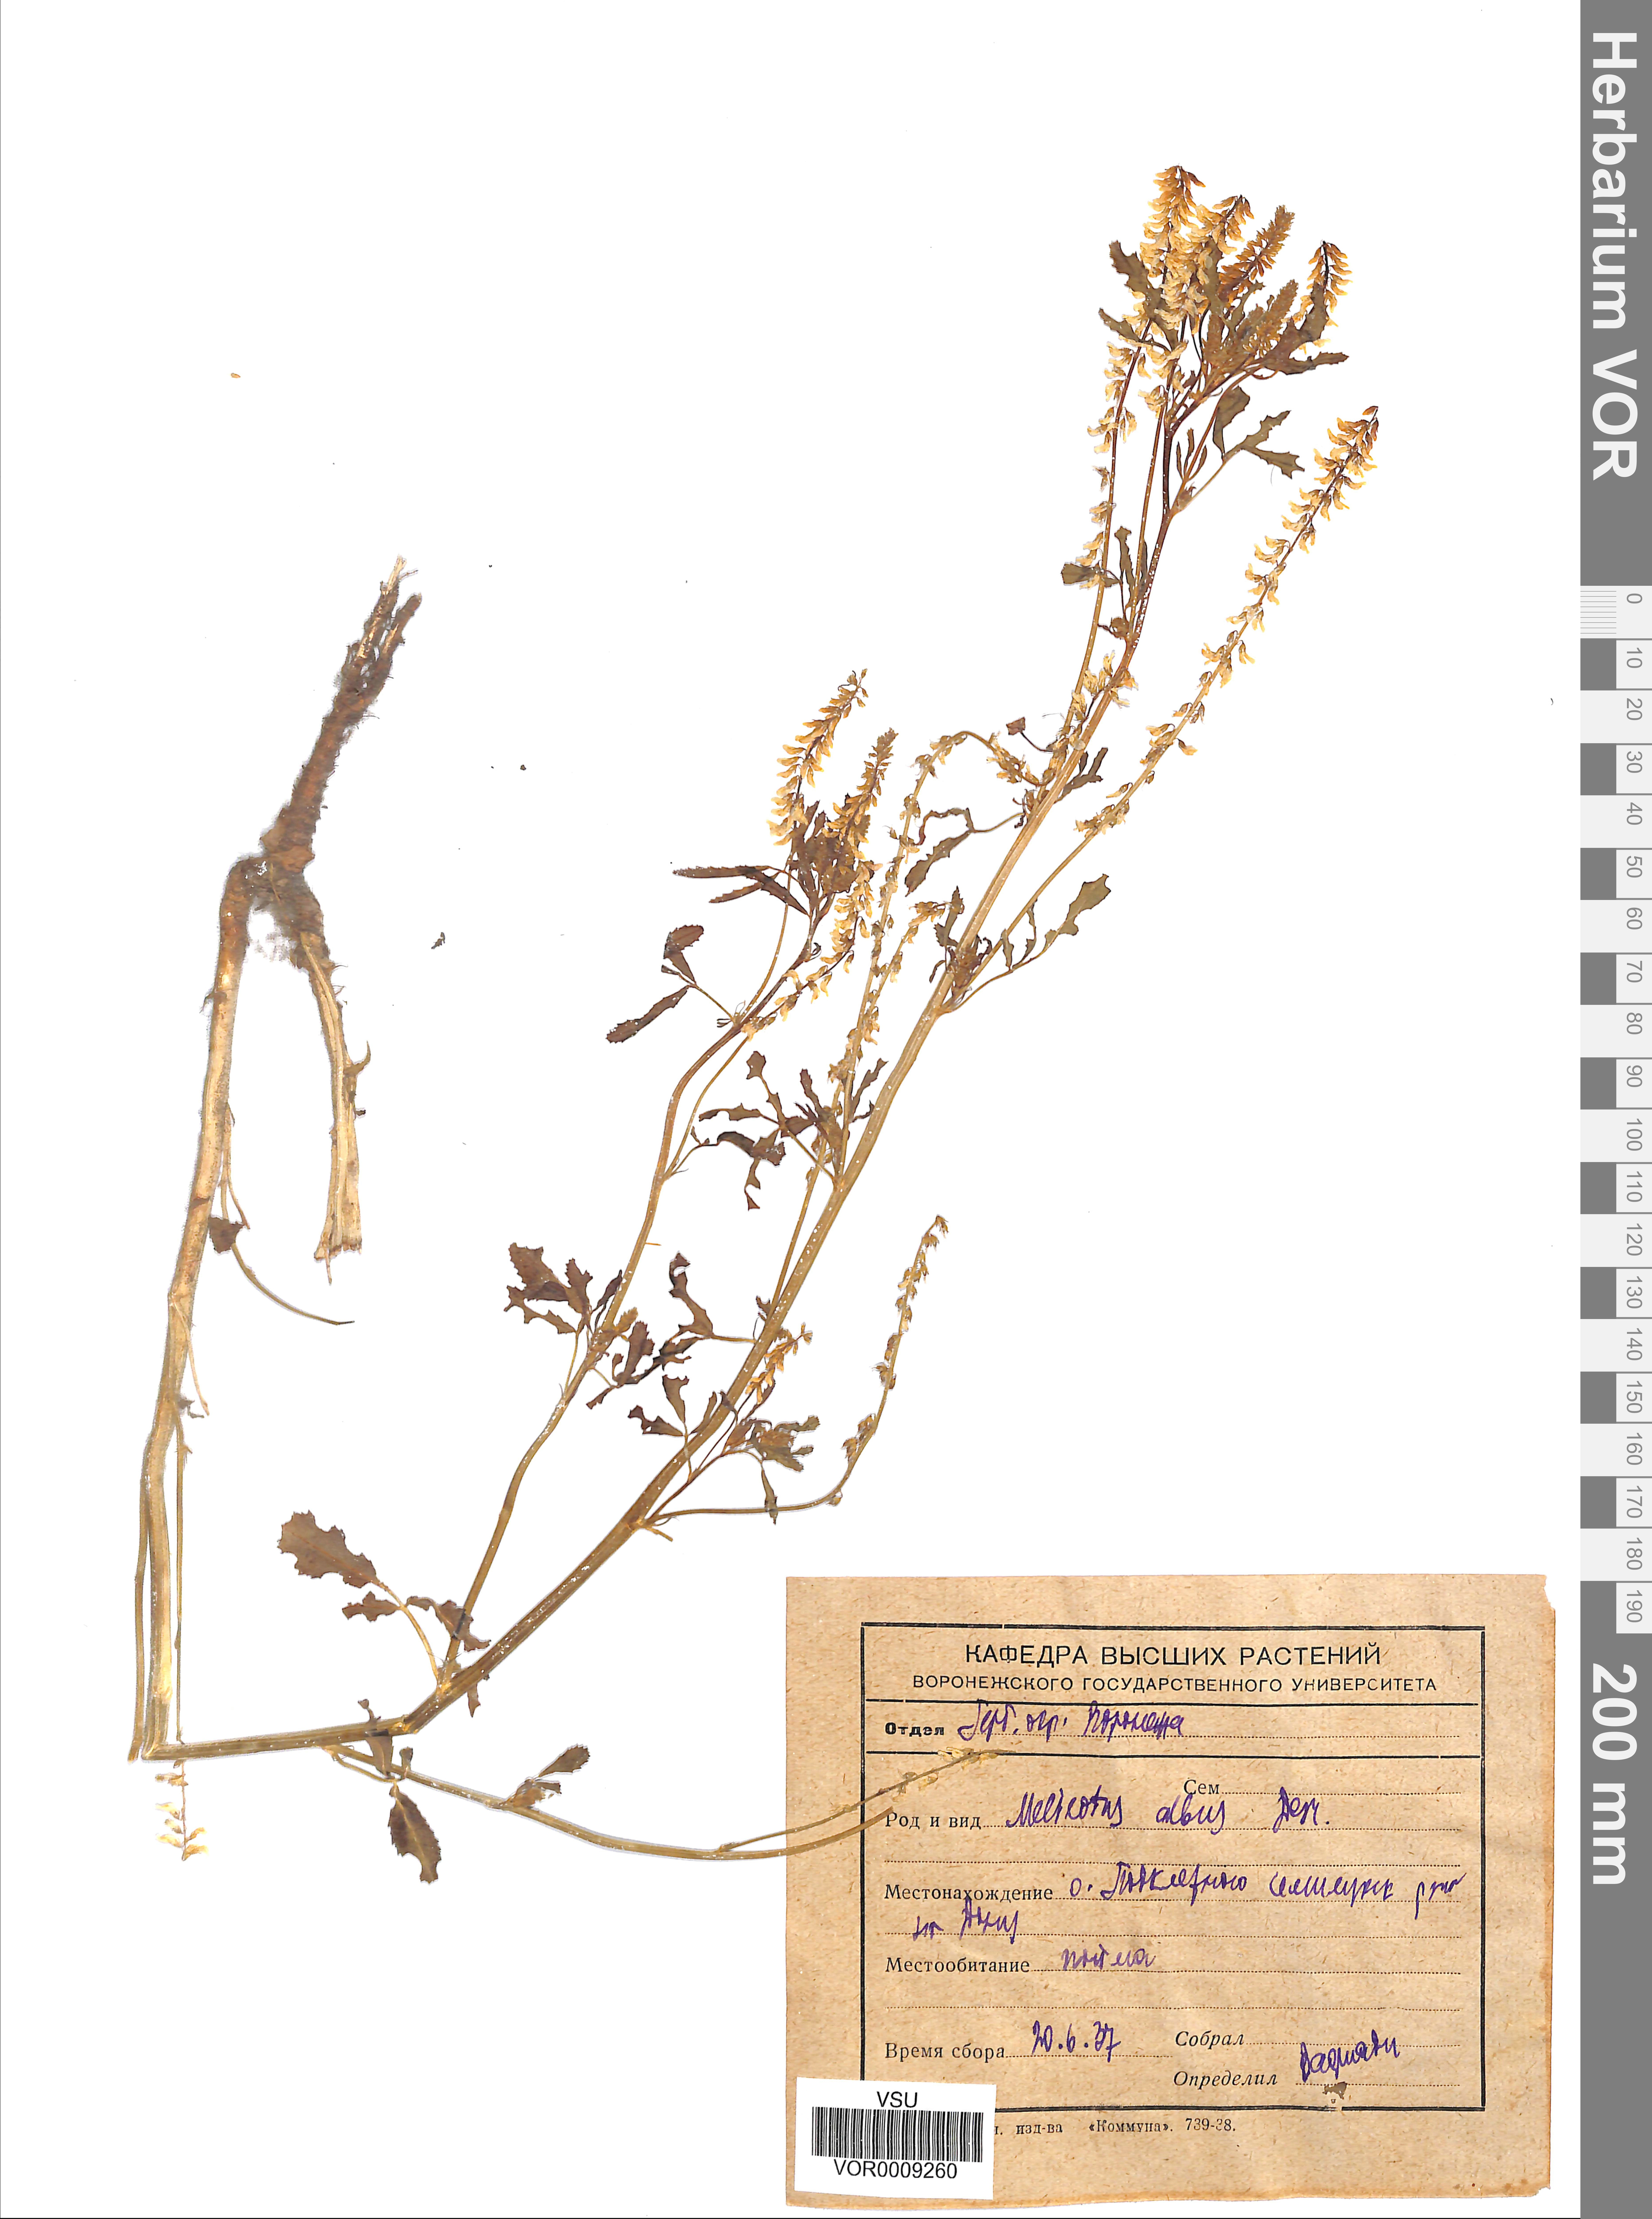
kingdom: Plantae
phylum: Tracheophyta
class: Magnoliopsida
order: Fabales
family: Fabaceae
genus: Melilotus
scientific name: Melilotus albus
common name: White melilot
